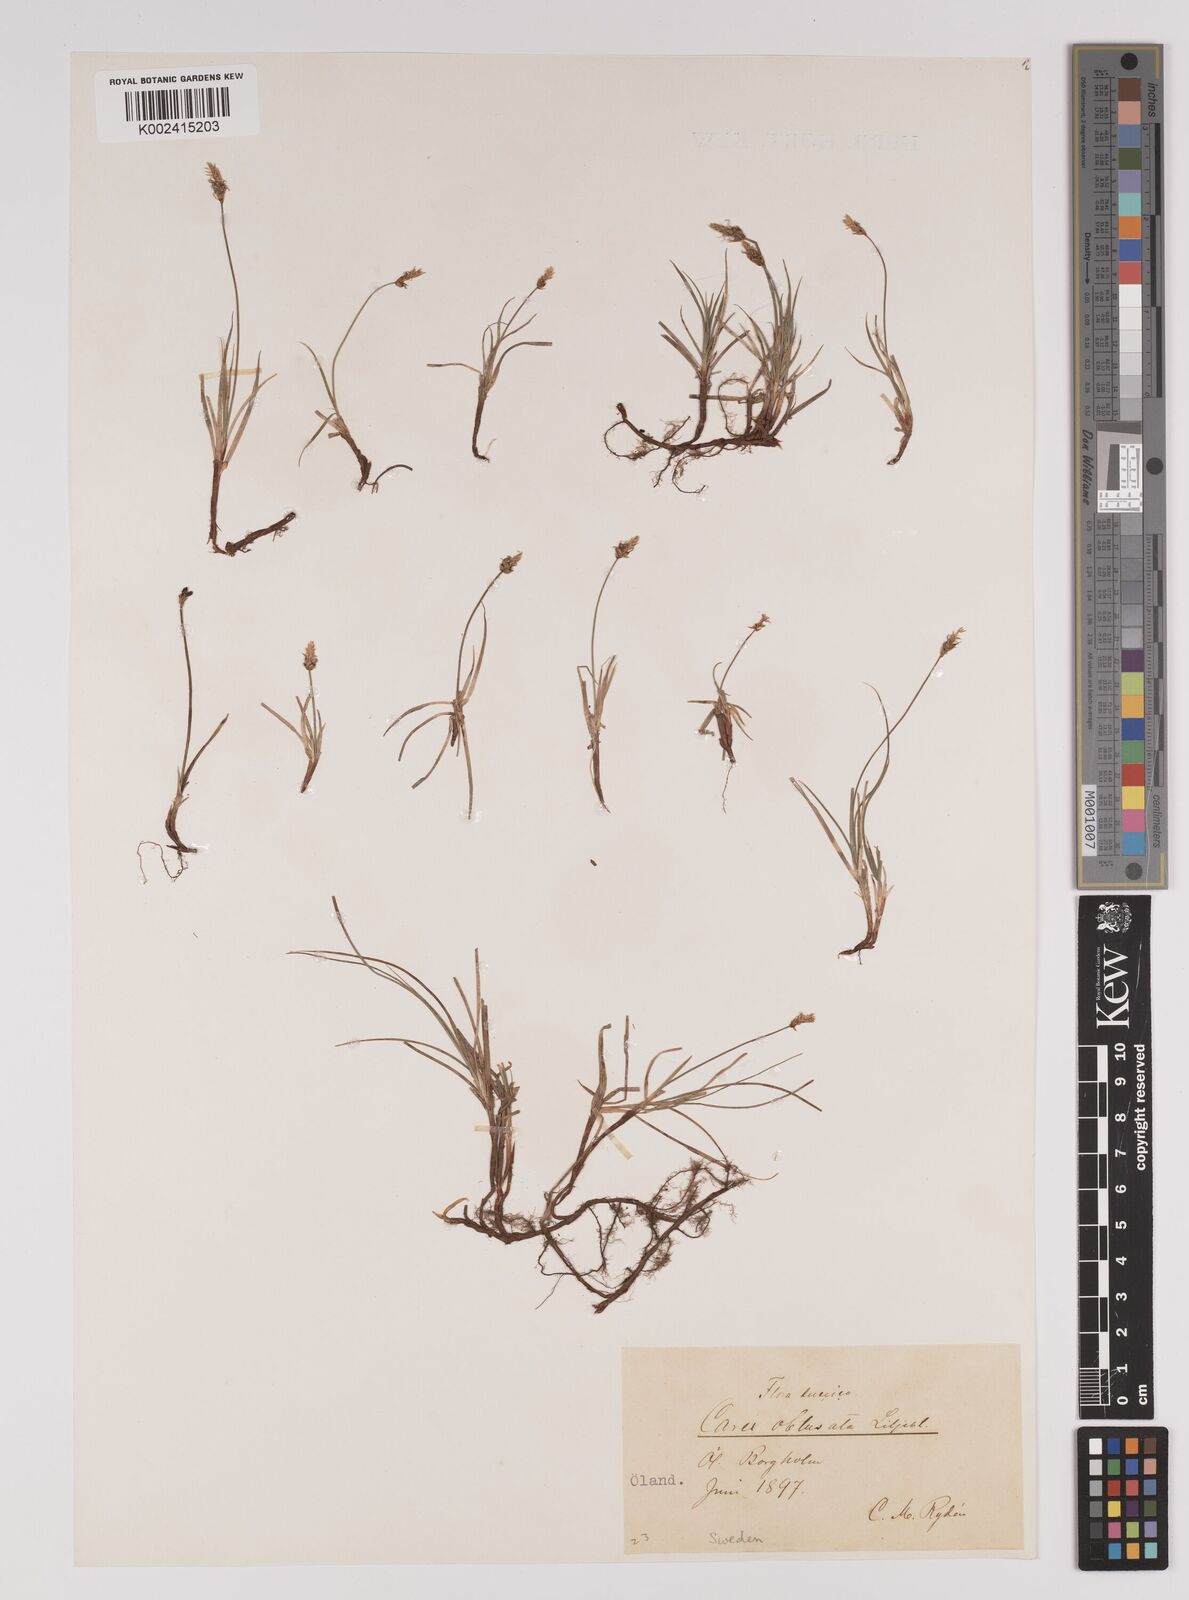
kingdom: Plantae
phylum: Tracheophyta
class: Liliopsida
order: Poales
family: Cyperaceae
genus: Carex
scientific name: Carex obtusata
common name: Blunt sedge
